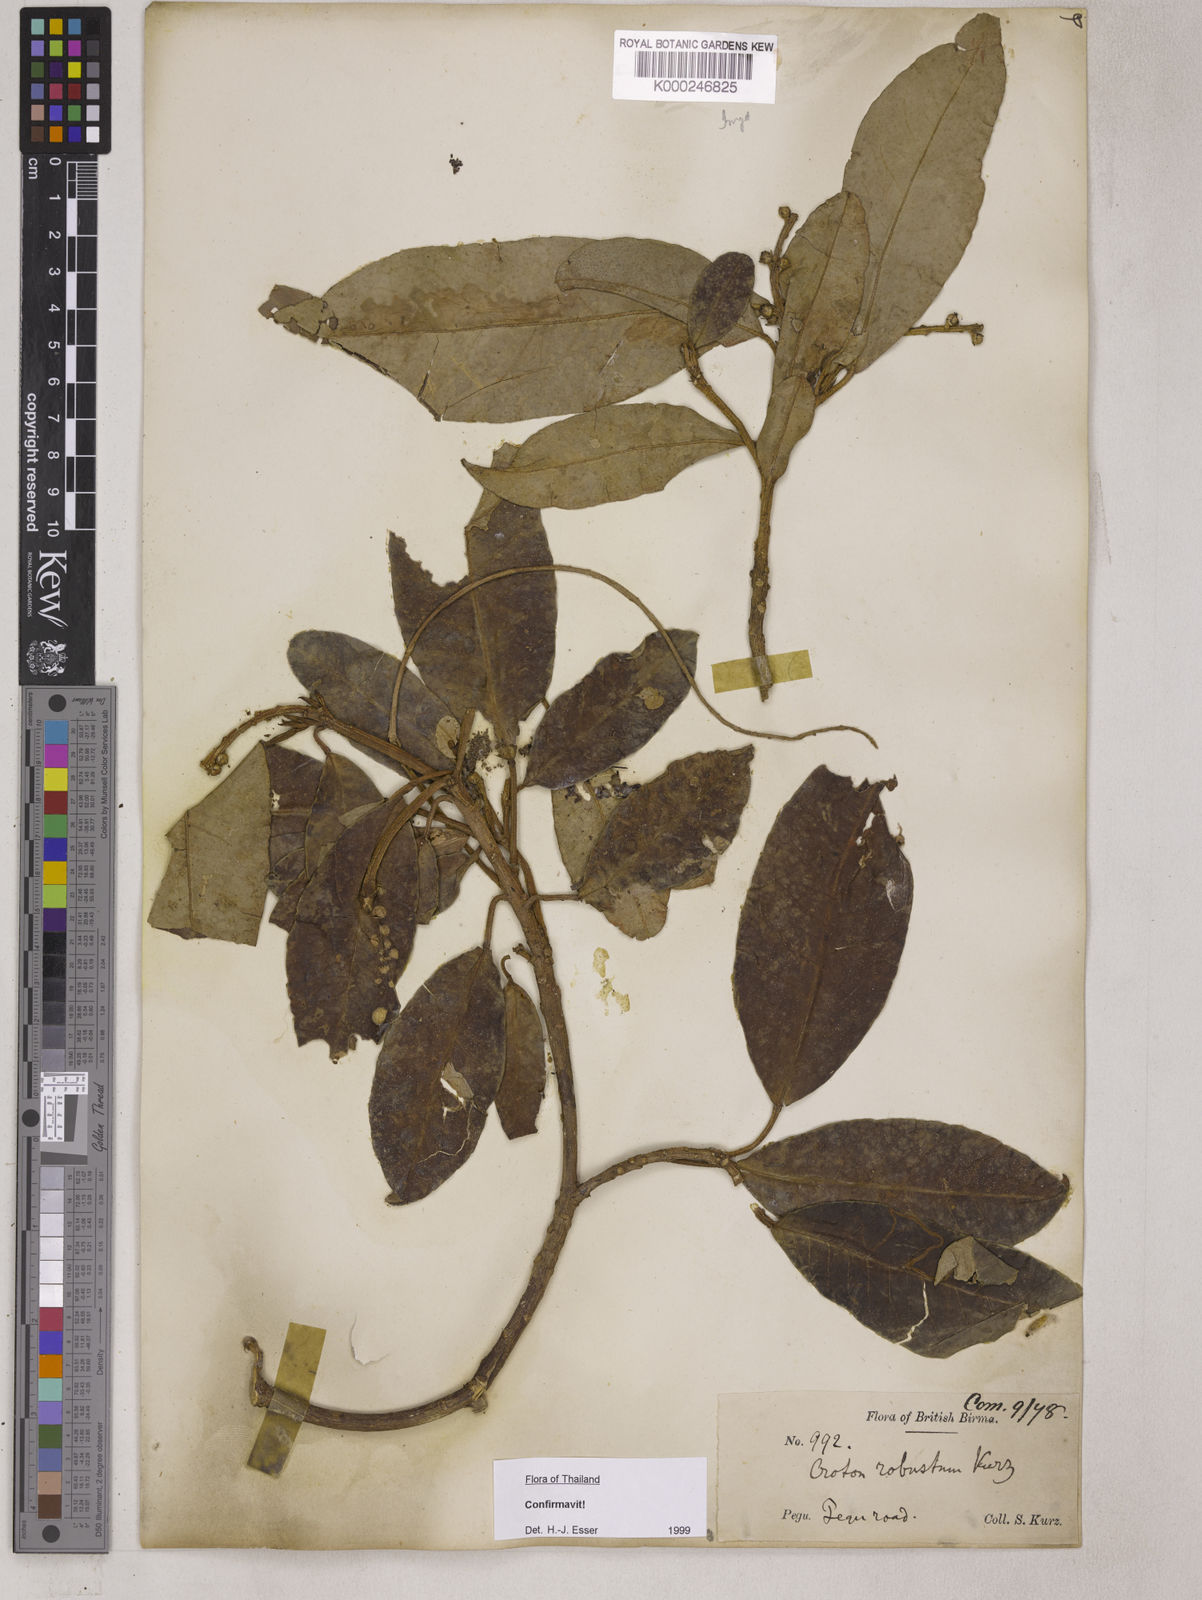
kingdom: Plantae
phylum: Tracheophyta
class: Magnoliopsida
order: Malpighiales
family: Euphorbiaceae
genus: Croton
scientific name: Croton robustus
